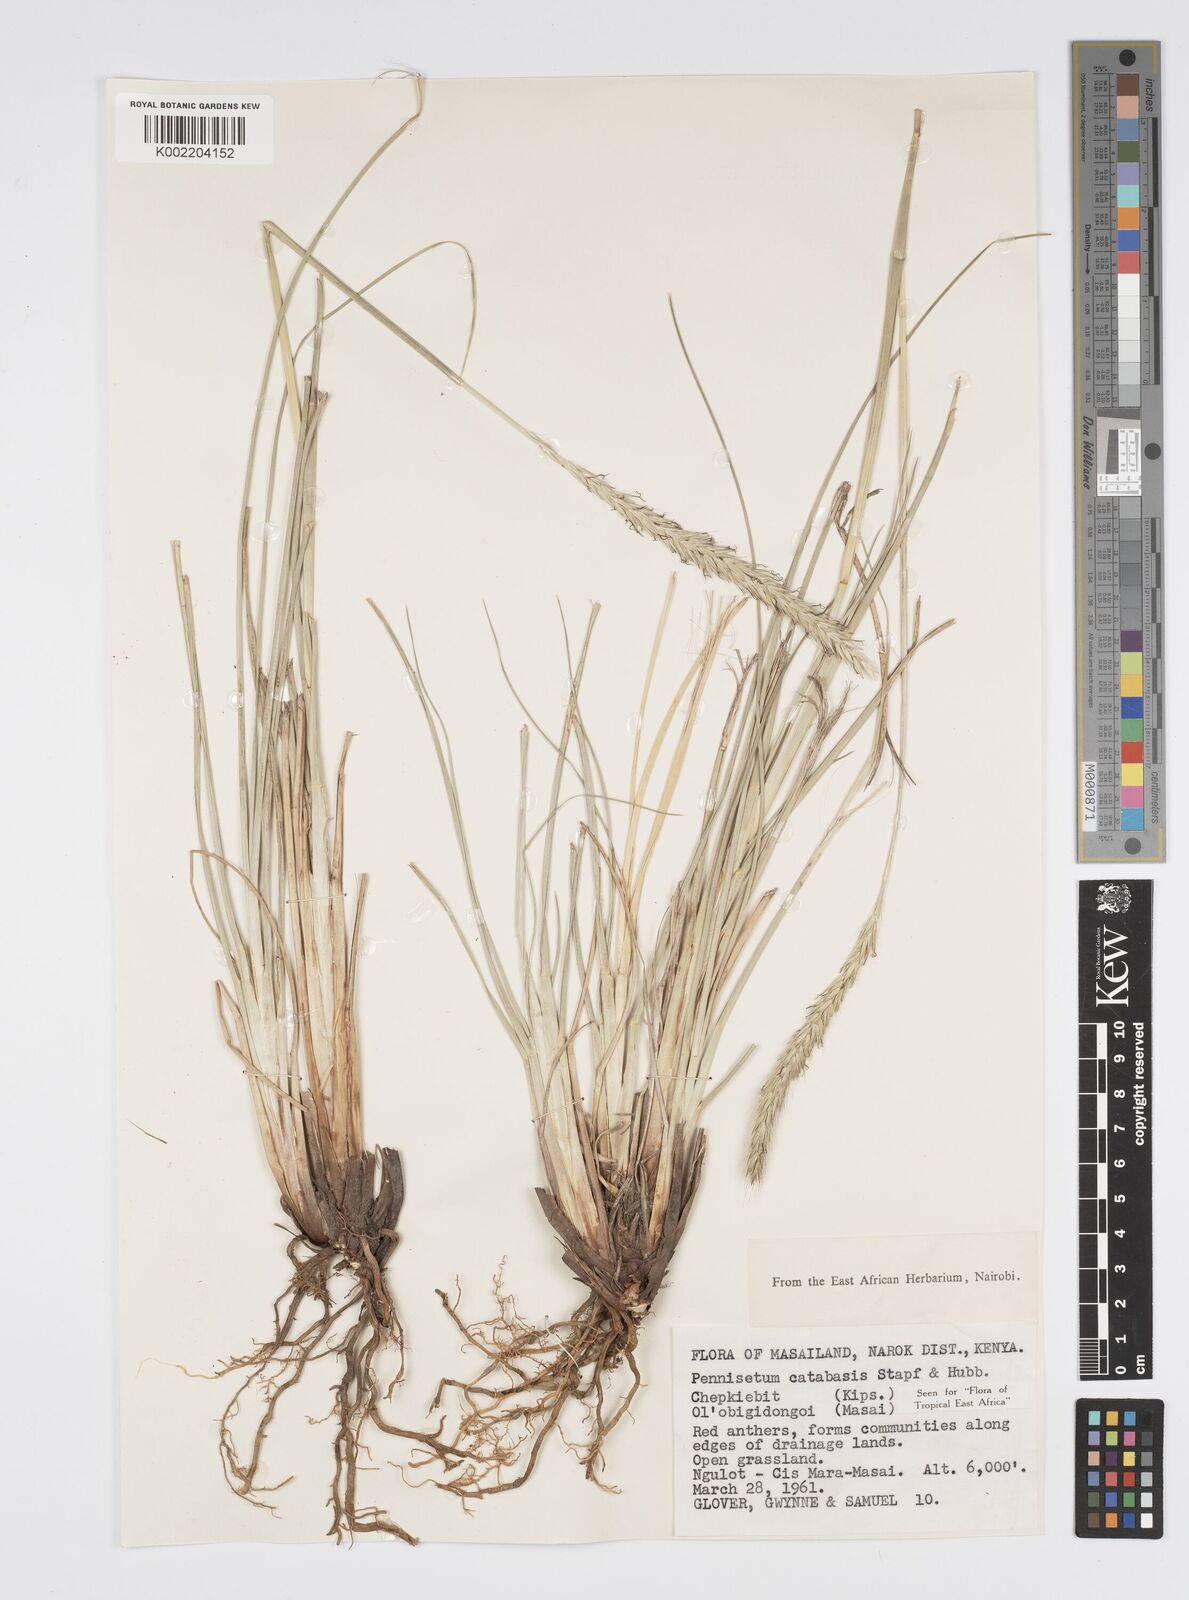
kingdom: Plantae
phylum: Tracheophyta
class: Liliopsida
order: Poales
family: Poaceae
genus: Cenchrus
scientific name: Cenchrus hohenackeri
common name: Moya grass
